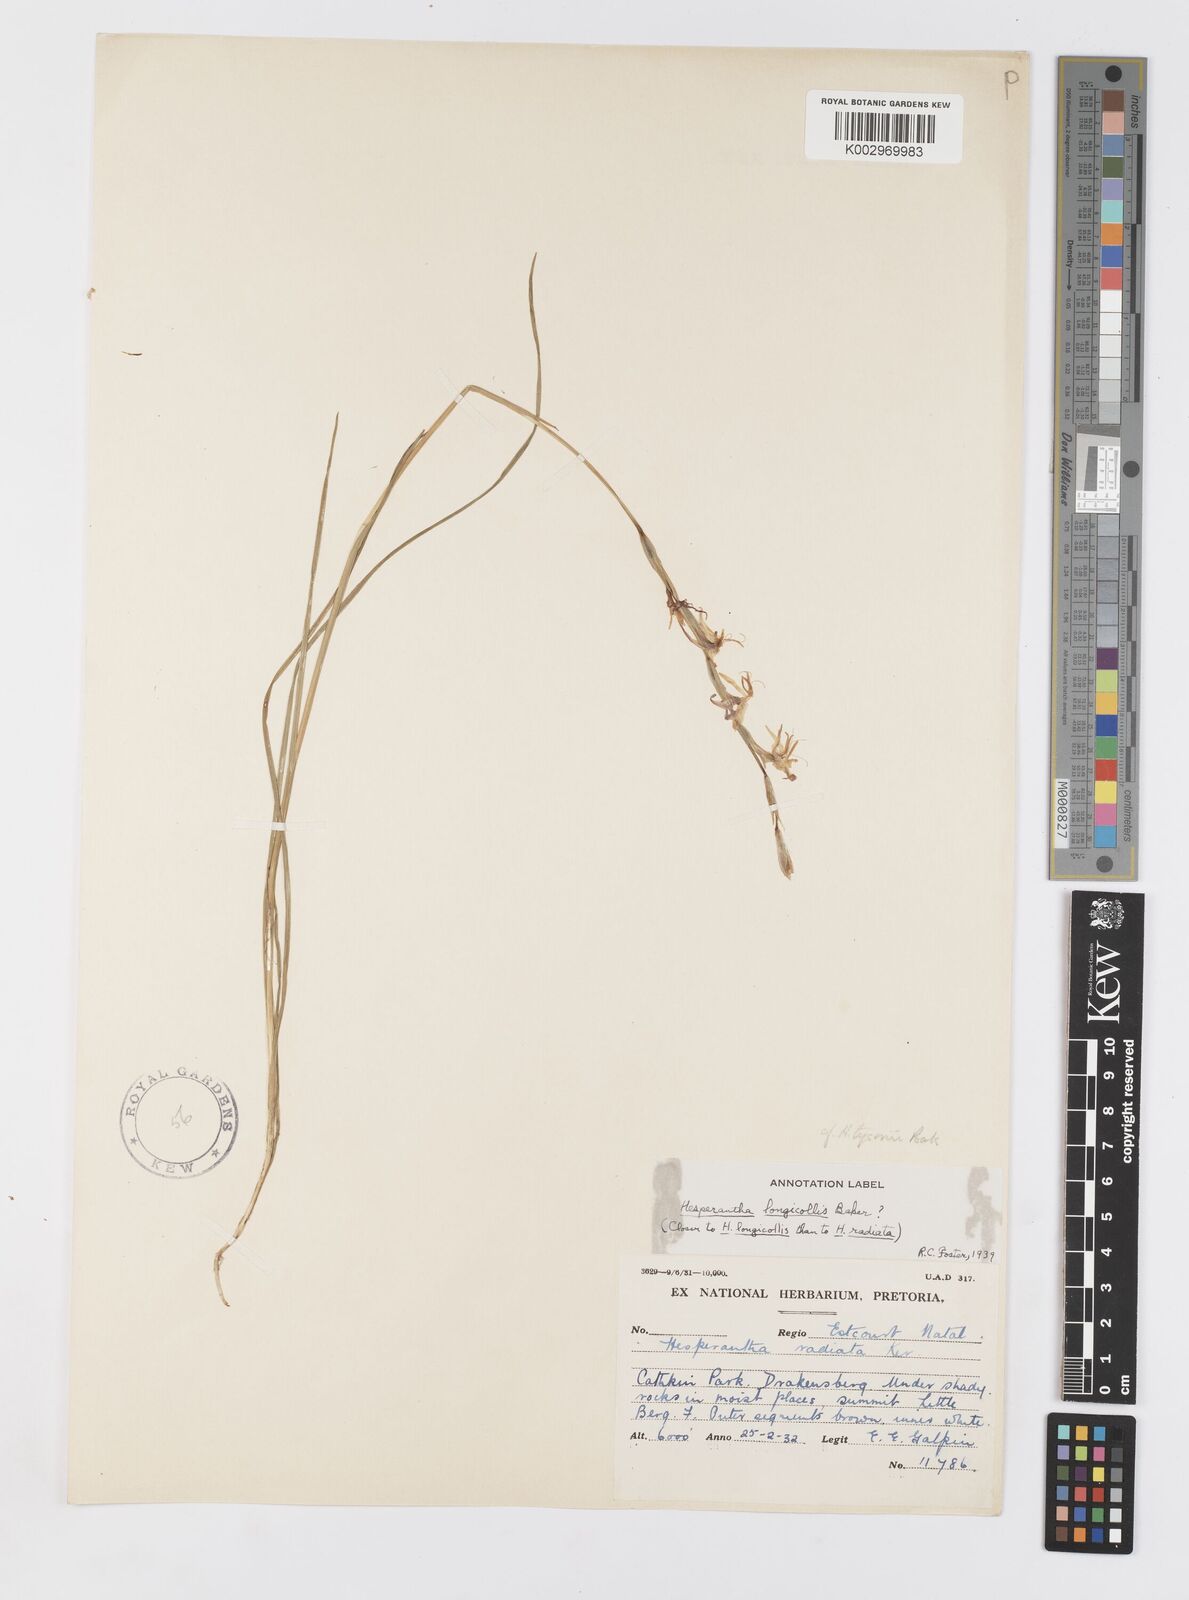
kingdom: Plantae
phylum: Tracheophyta
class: Liliopsida
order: Asparagales
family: Iridaceae
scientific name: Iridaceae
